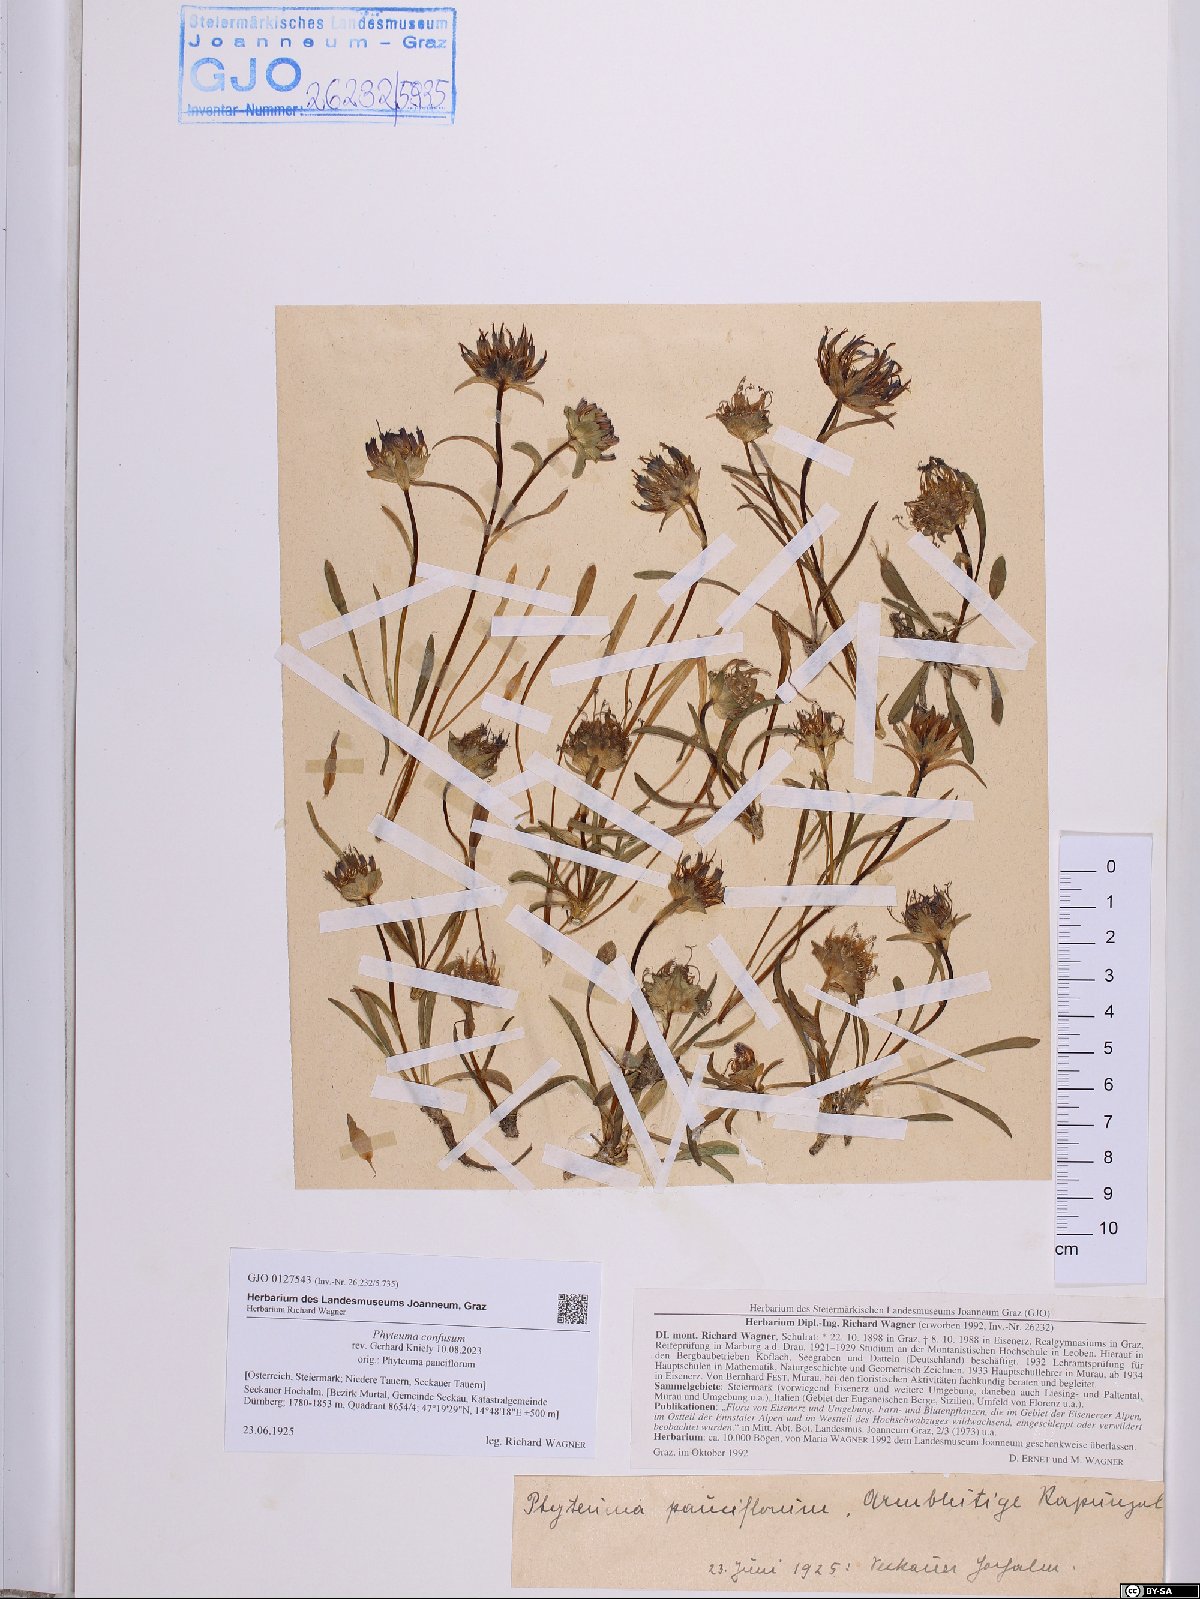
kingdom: Plantae
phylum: Tracheophyta
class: Magnoliopsida
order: Asterales
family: Campanulaceae
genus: Phyteuma
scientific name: Phyteuma confusum
